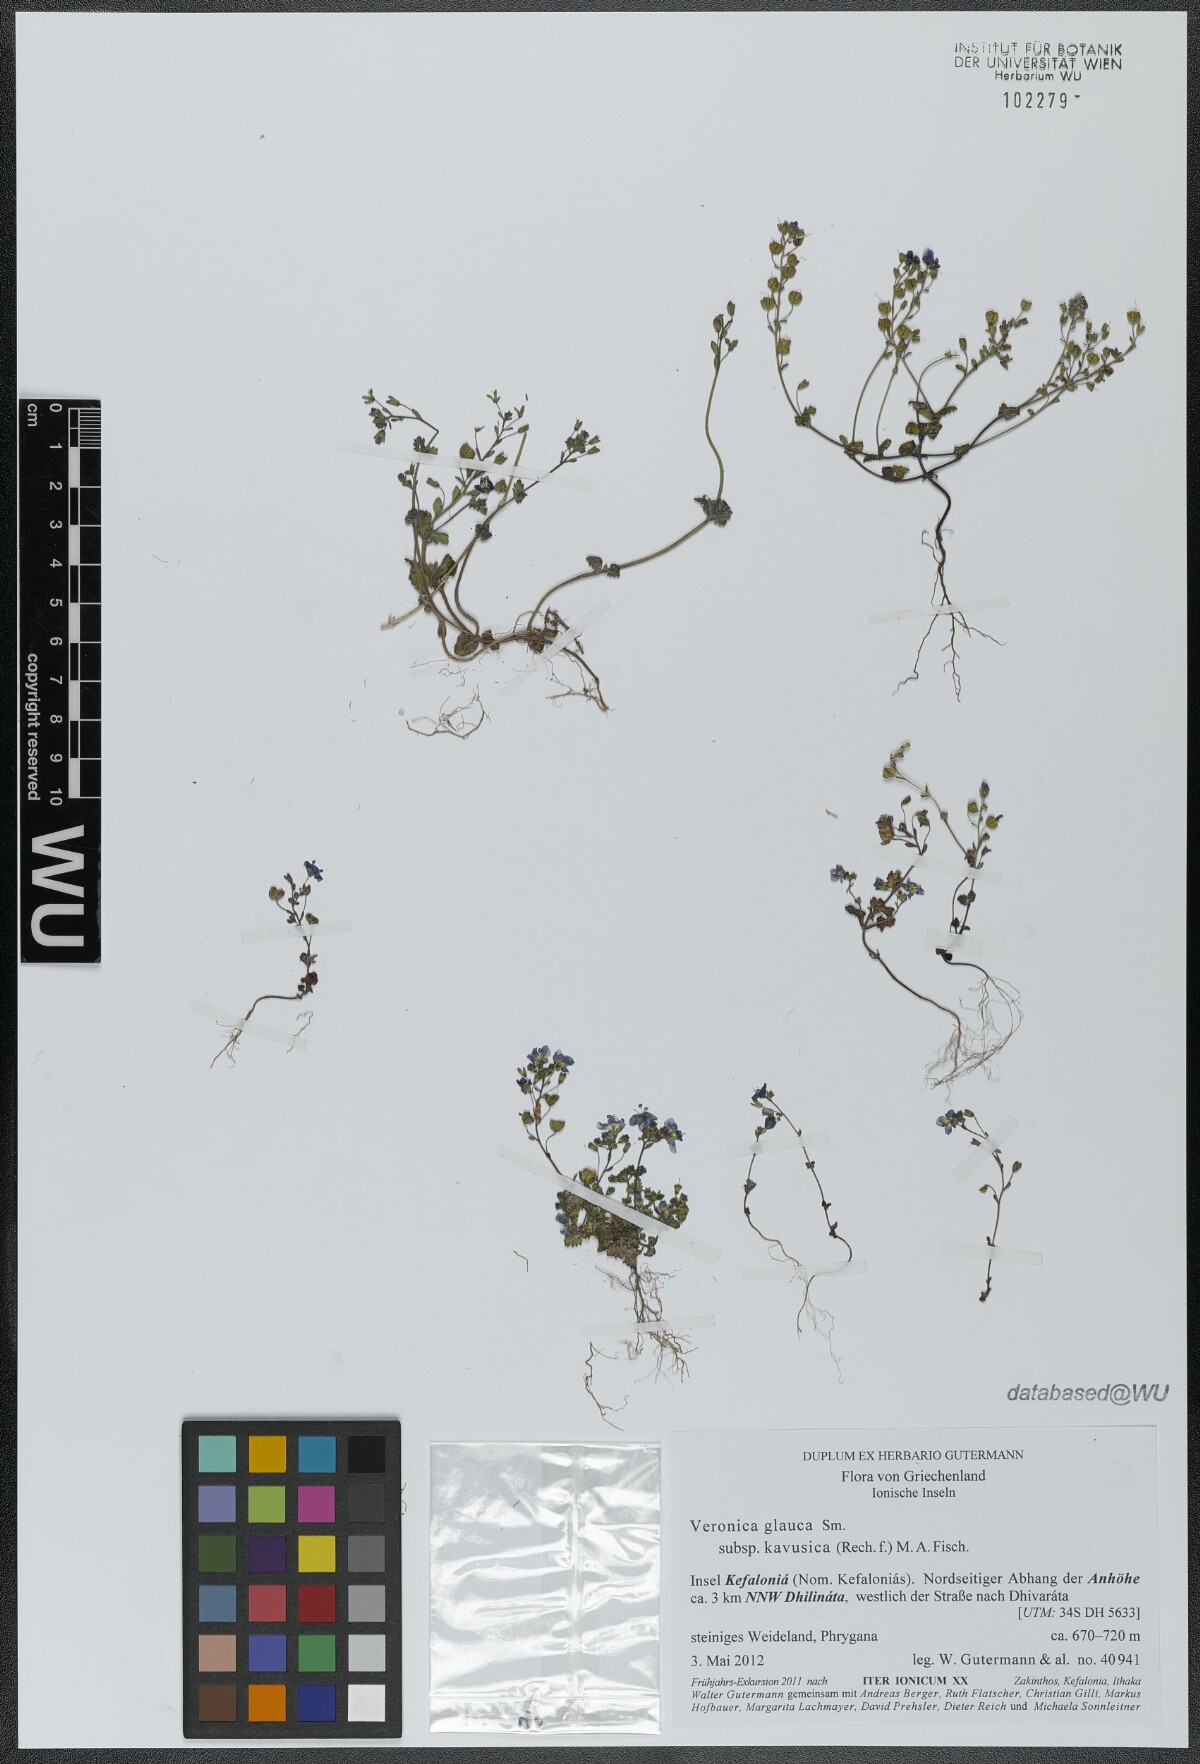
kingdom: Plantae
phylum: Tracheophyta
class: Magnoliopsida
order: Lamiales
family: Plantaginaceae
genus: Veronica
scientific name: Veronica glauca
